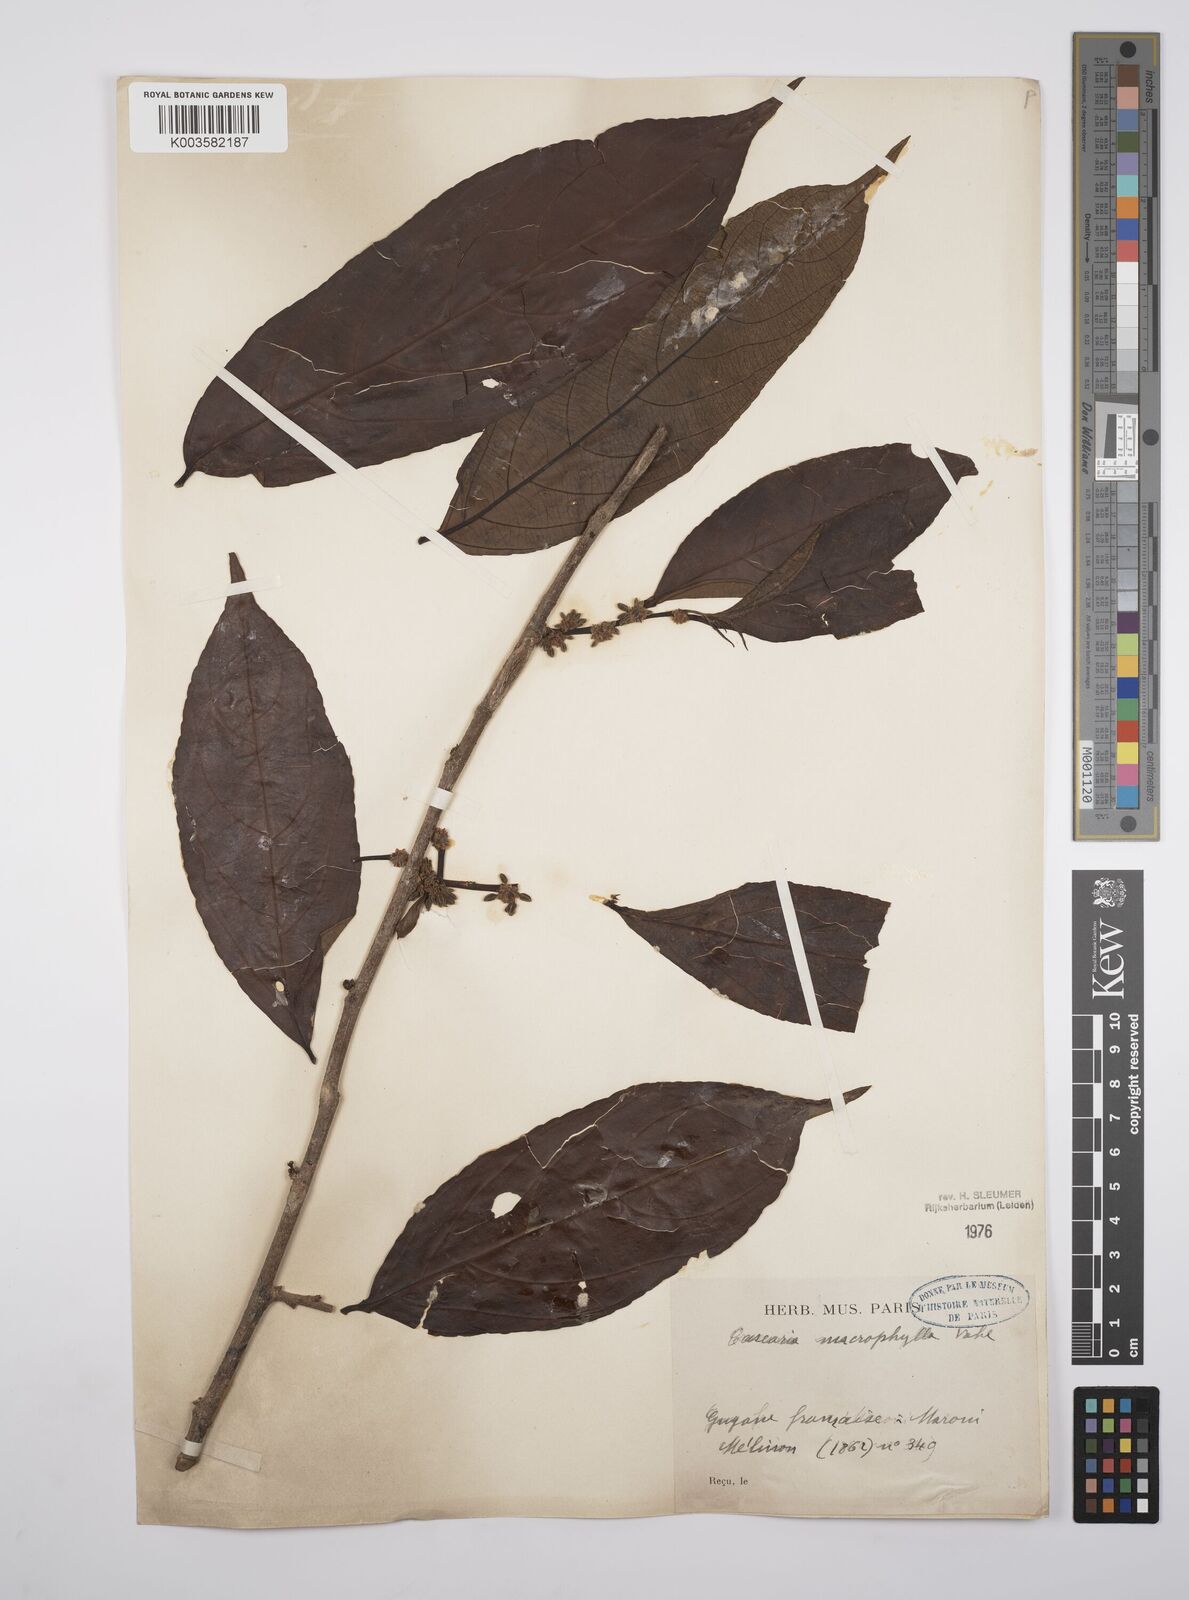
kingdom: Plantae
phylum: Tracheophyta
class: Magnoliopsida
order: Malpighiales
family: Salicaceae
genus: Casearia
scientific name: Casearia pitumba
